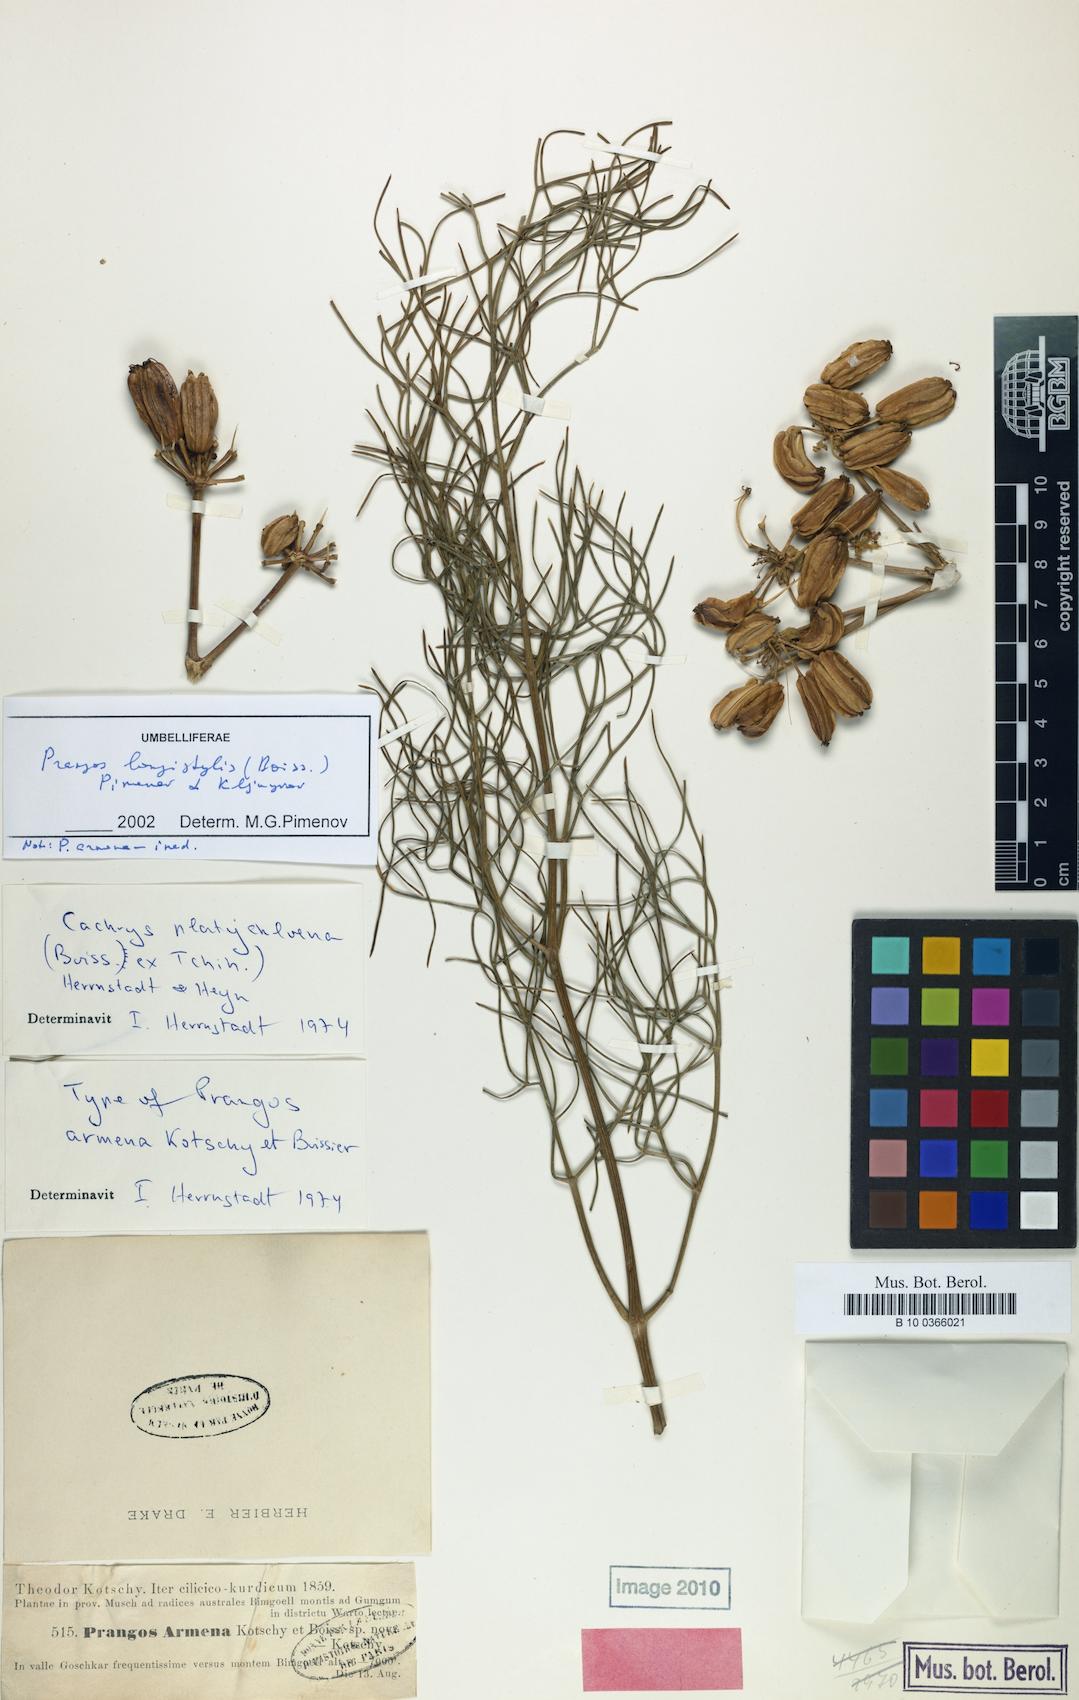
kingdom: Plantae
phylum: Tracheophyta
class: Magnoliopsida
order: Apiales
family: Apiaceae
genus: Prangos
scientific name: Prangos platychlaena
